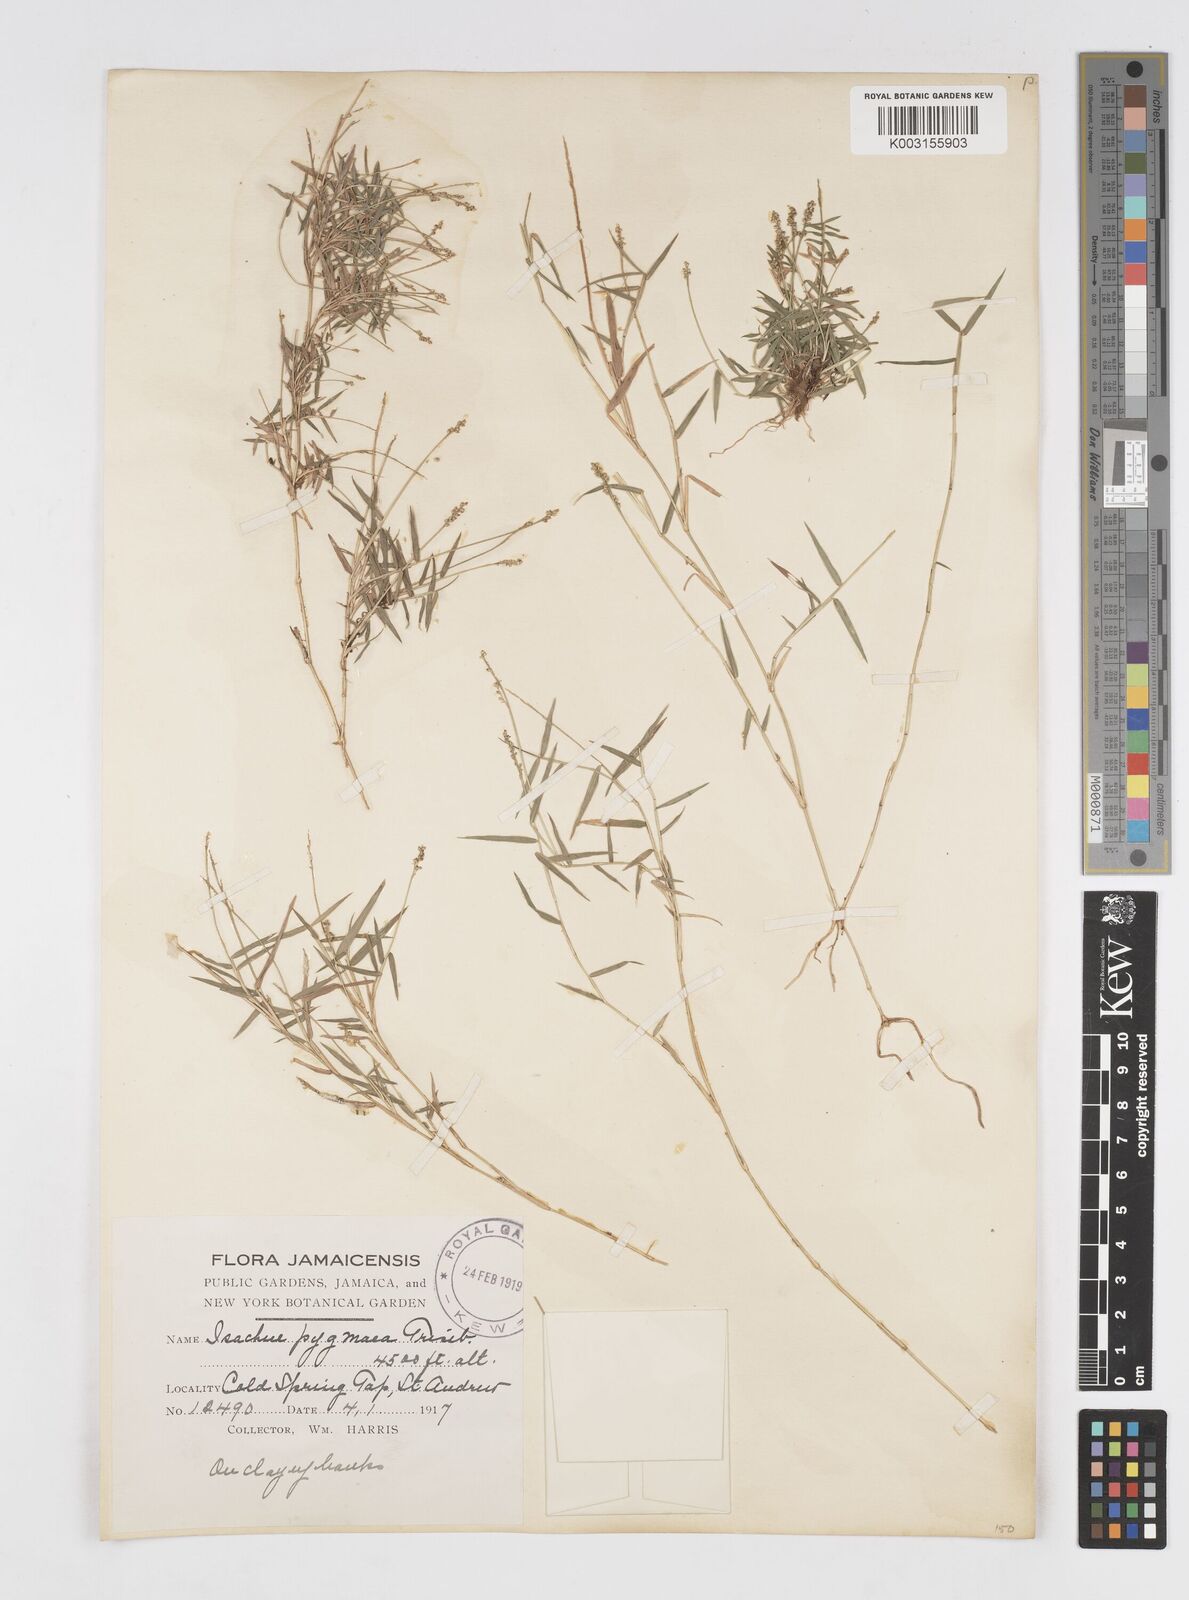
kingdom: Plantae
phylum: Tracheophyta
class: Liliopsida
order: Poales
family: Poaceae
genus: Isachne
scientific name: Isachne pygmaea
